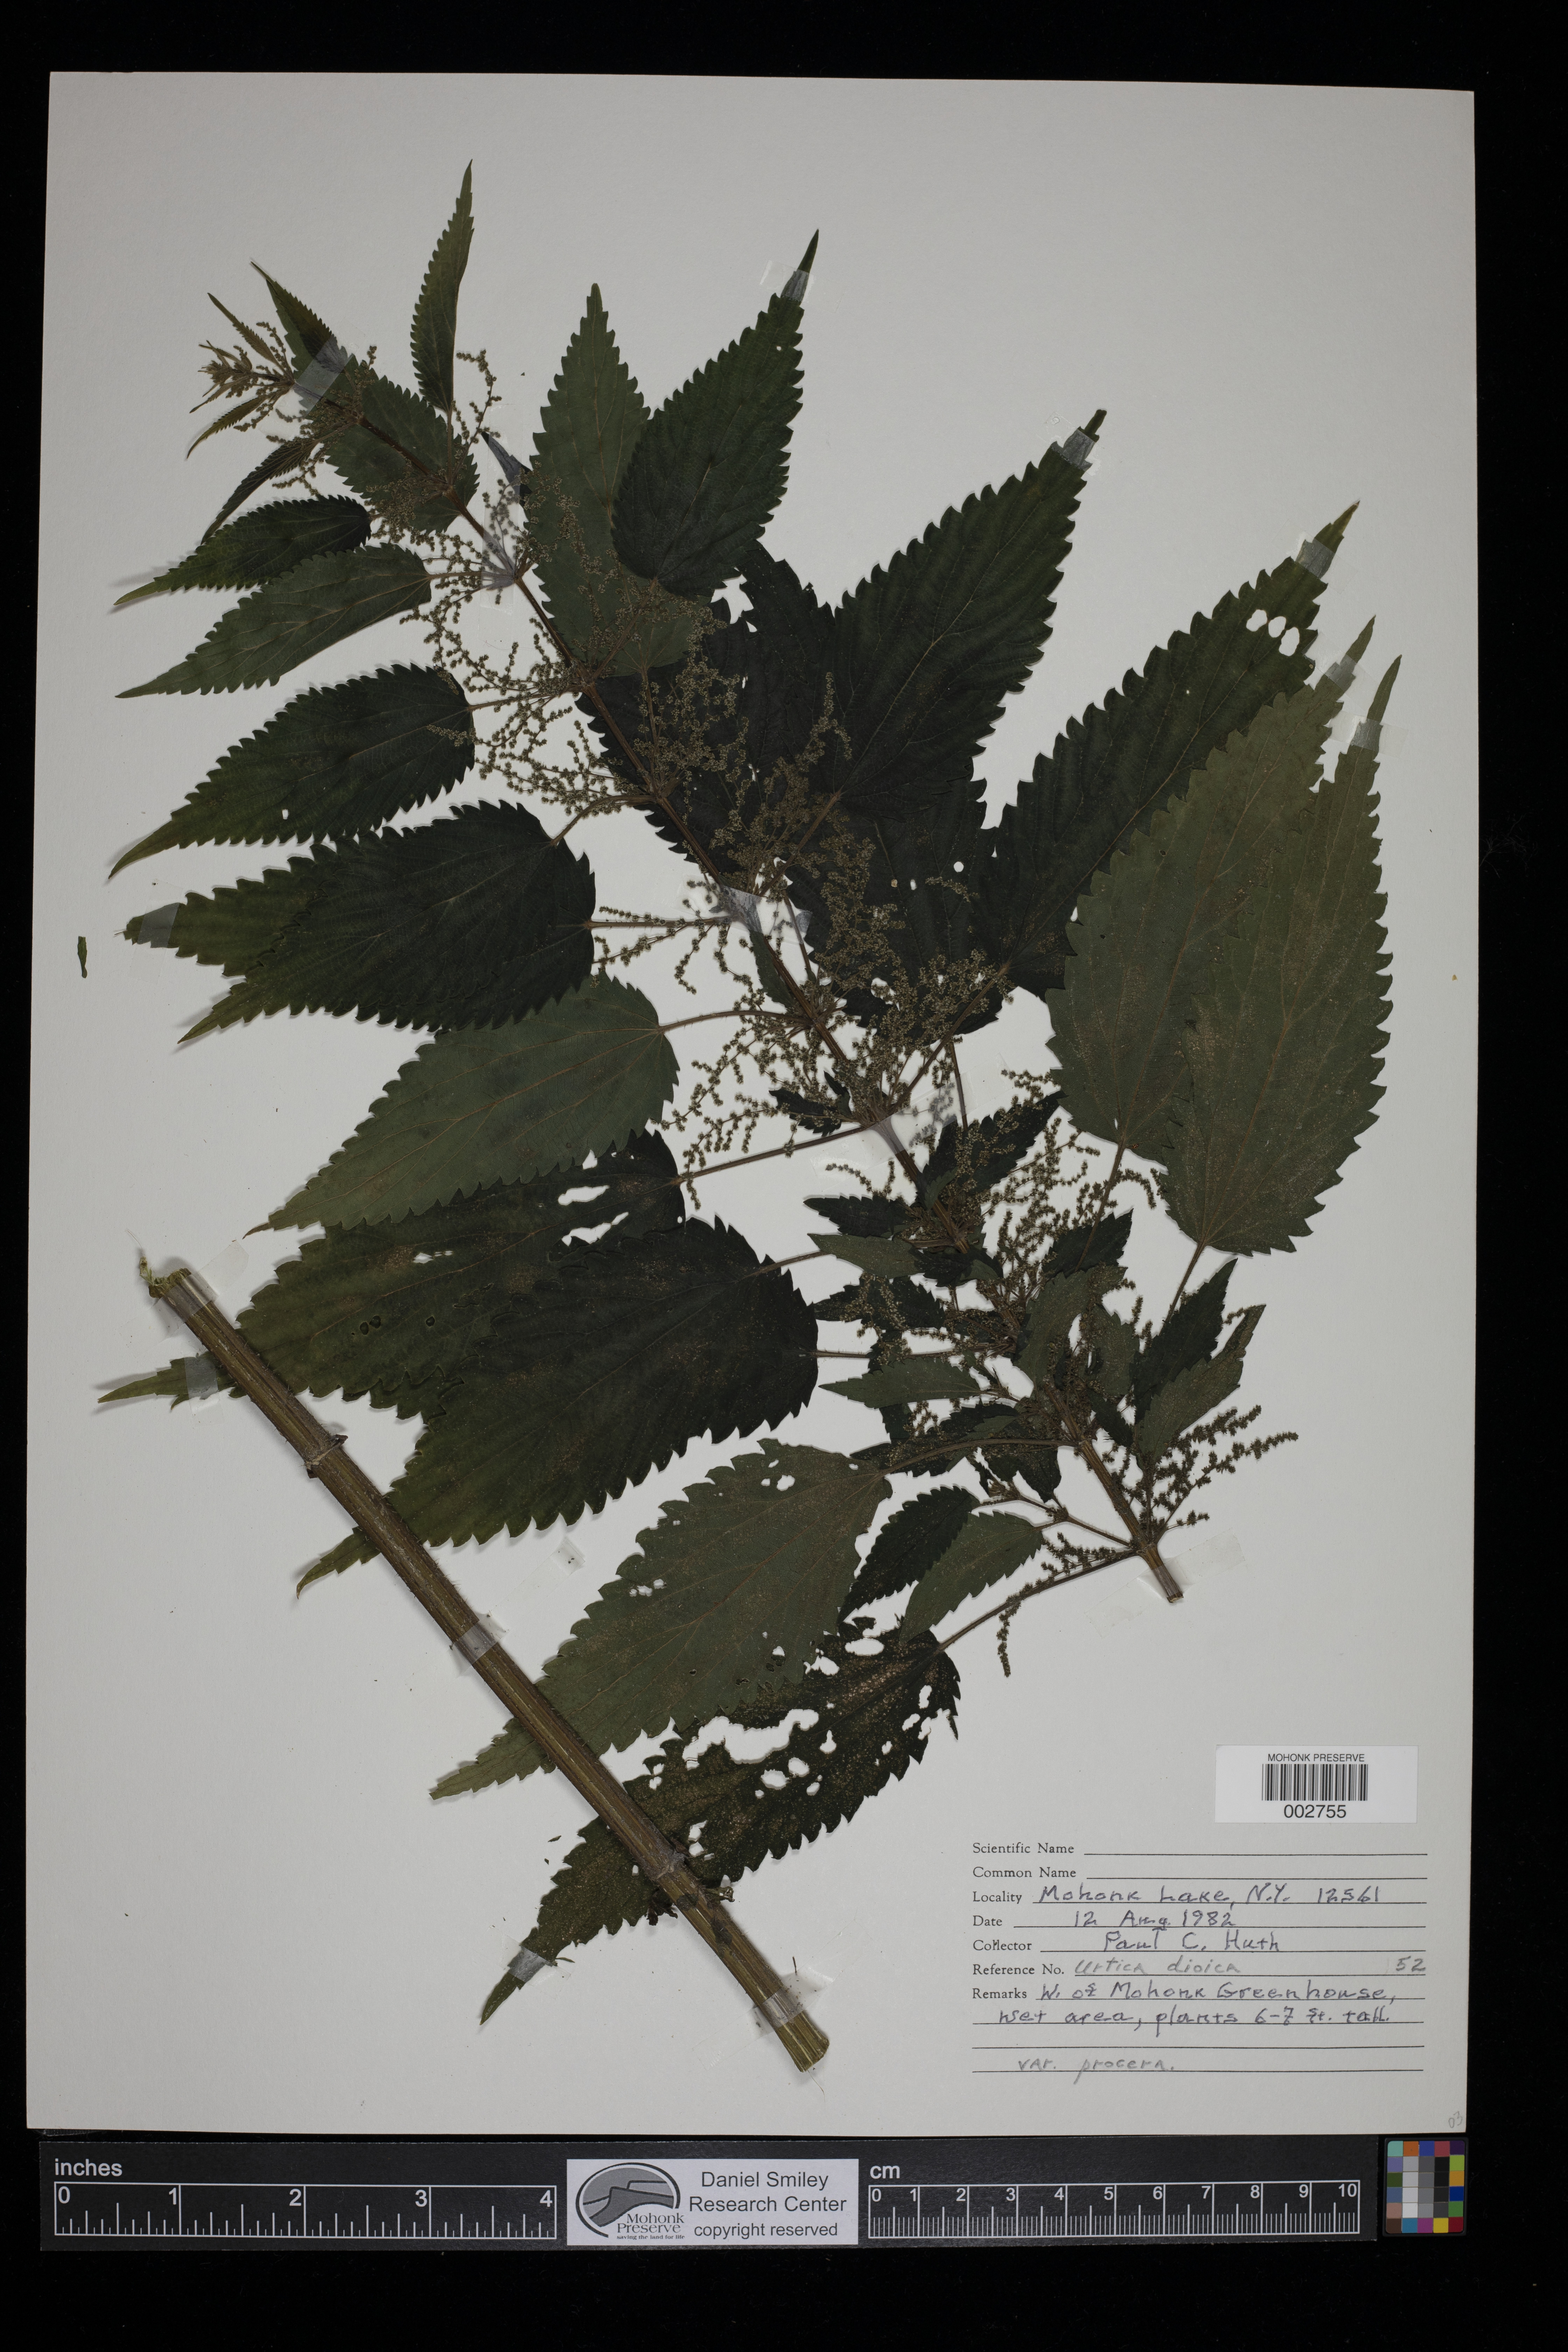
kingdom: Plantae
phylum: Tracheophyta
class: Magnoliopsida
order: Rosales
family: Urticaceae
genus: Urtica
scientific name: Urtica dioica
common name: Common nettle
